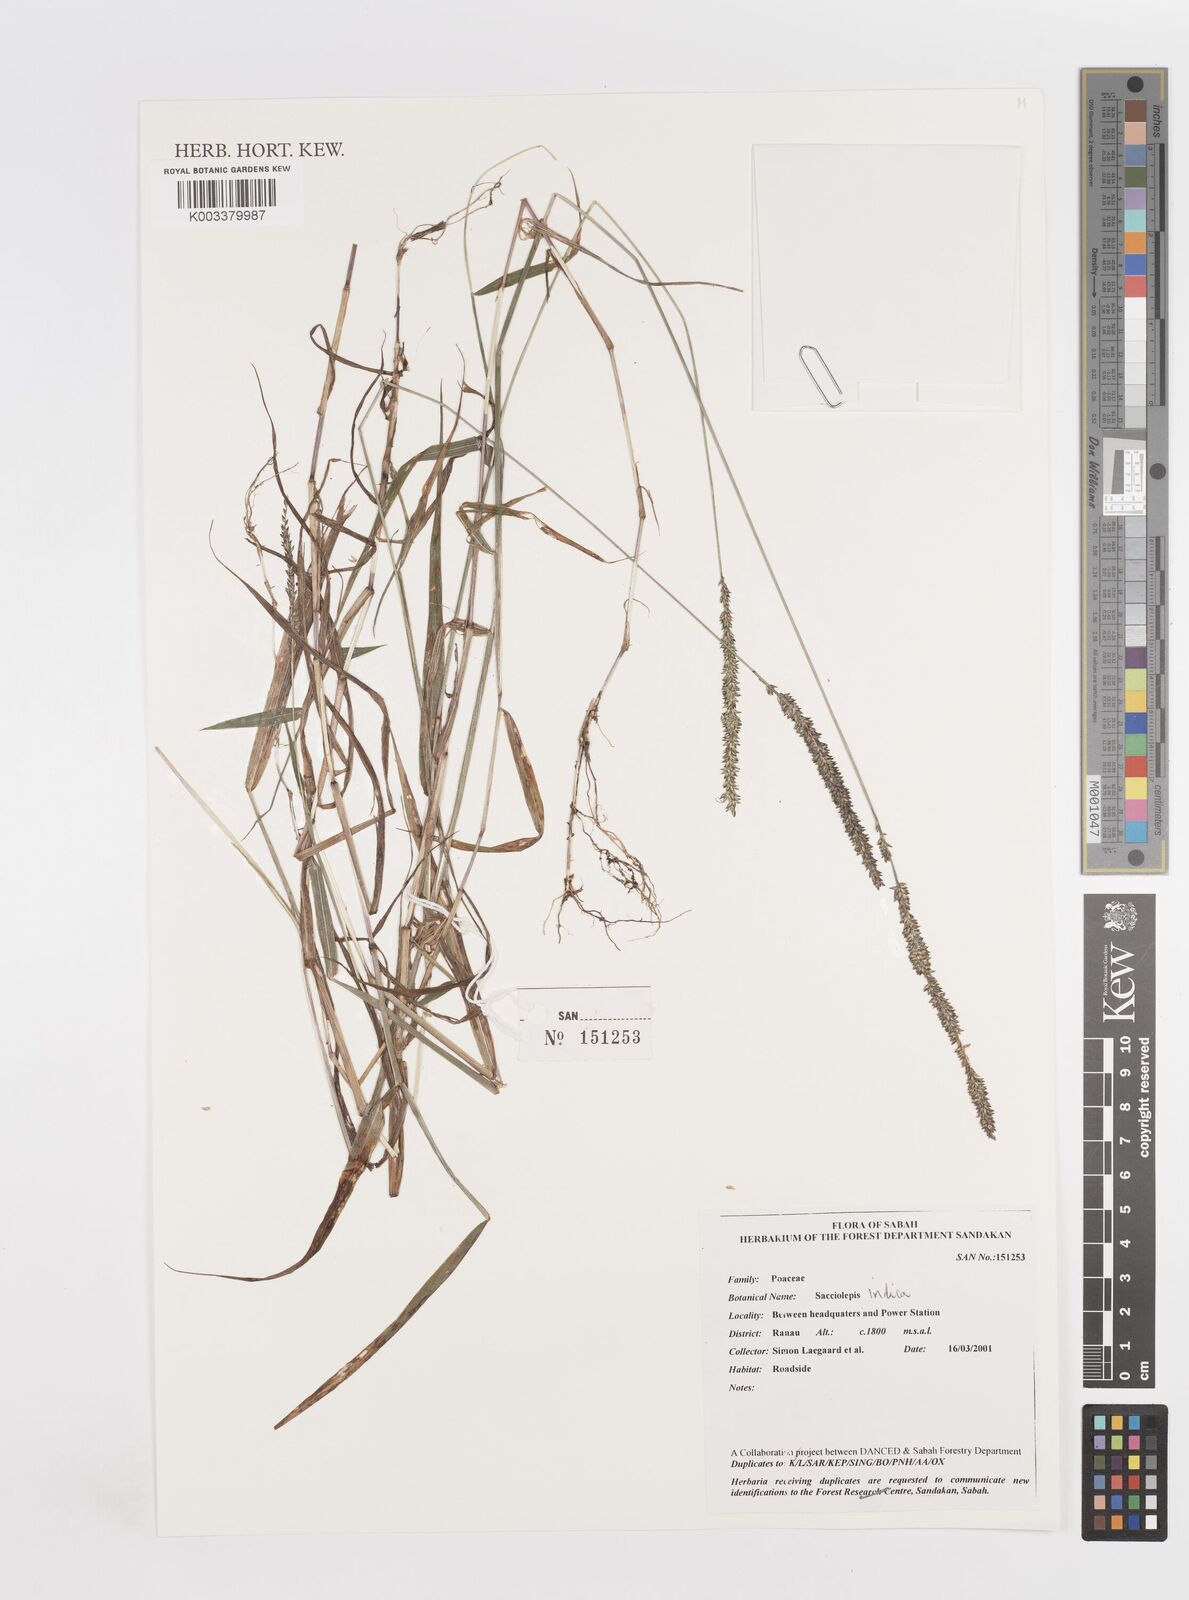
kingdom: Plantae
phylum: Tracheophyta
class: Liliopsida
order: Poales
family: Poaceae
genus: Sacciolepis
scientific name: Sacciolepis indica
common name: Glenwoodgrass
